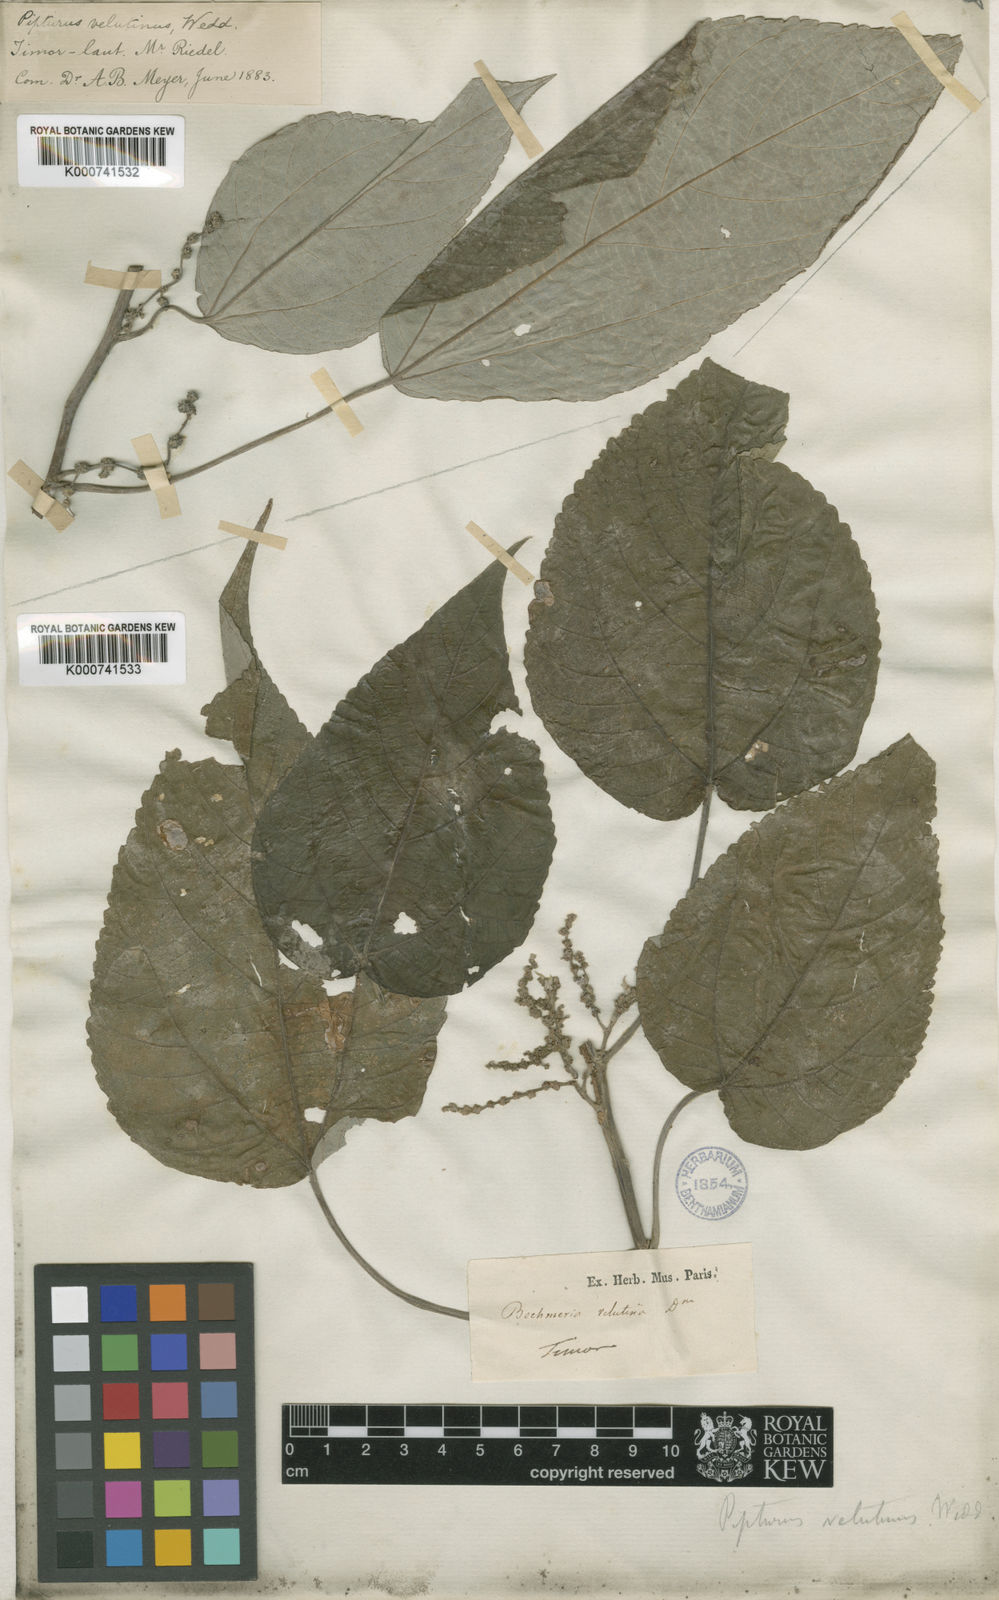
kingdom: Plantae
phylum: Tracheophyta
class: Magnoliopsida
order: Rosales
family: Urticaceae
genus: Pipturus
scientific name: Pipturus argenteus
